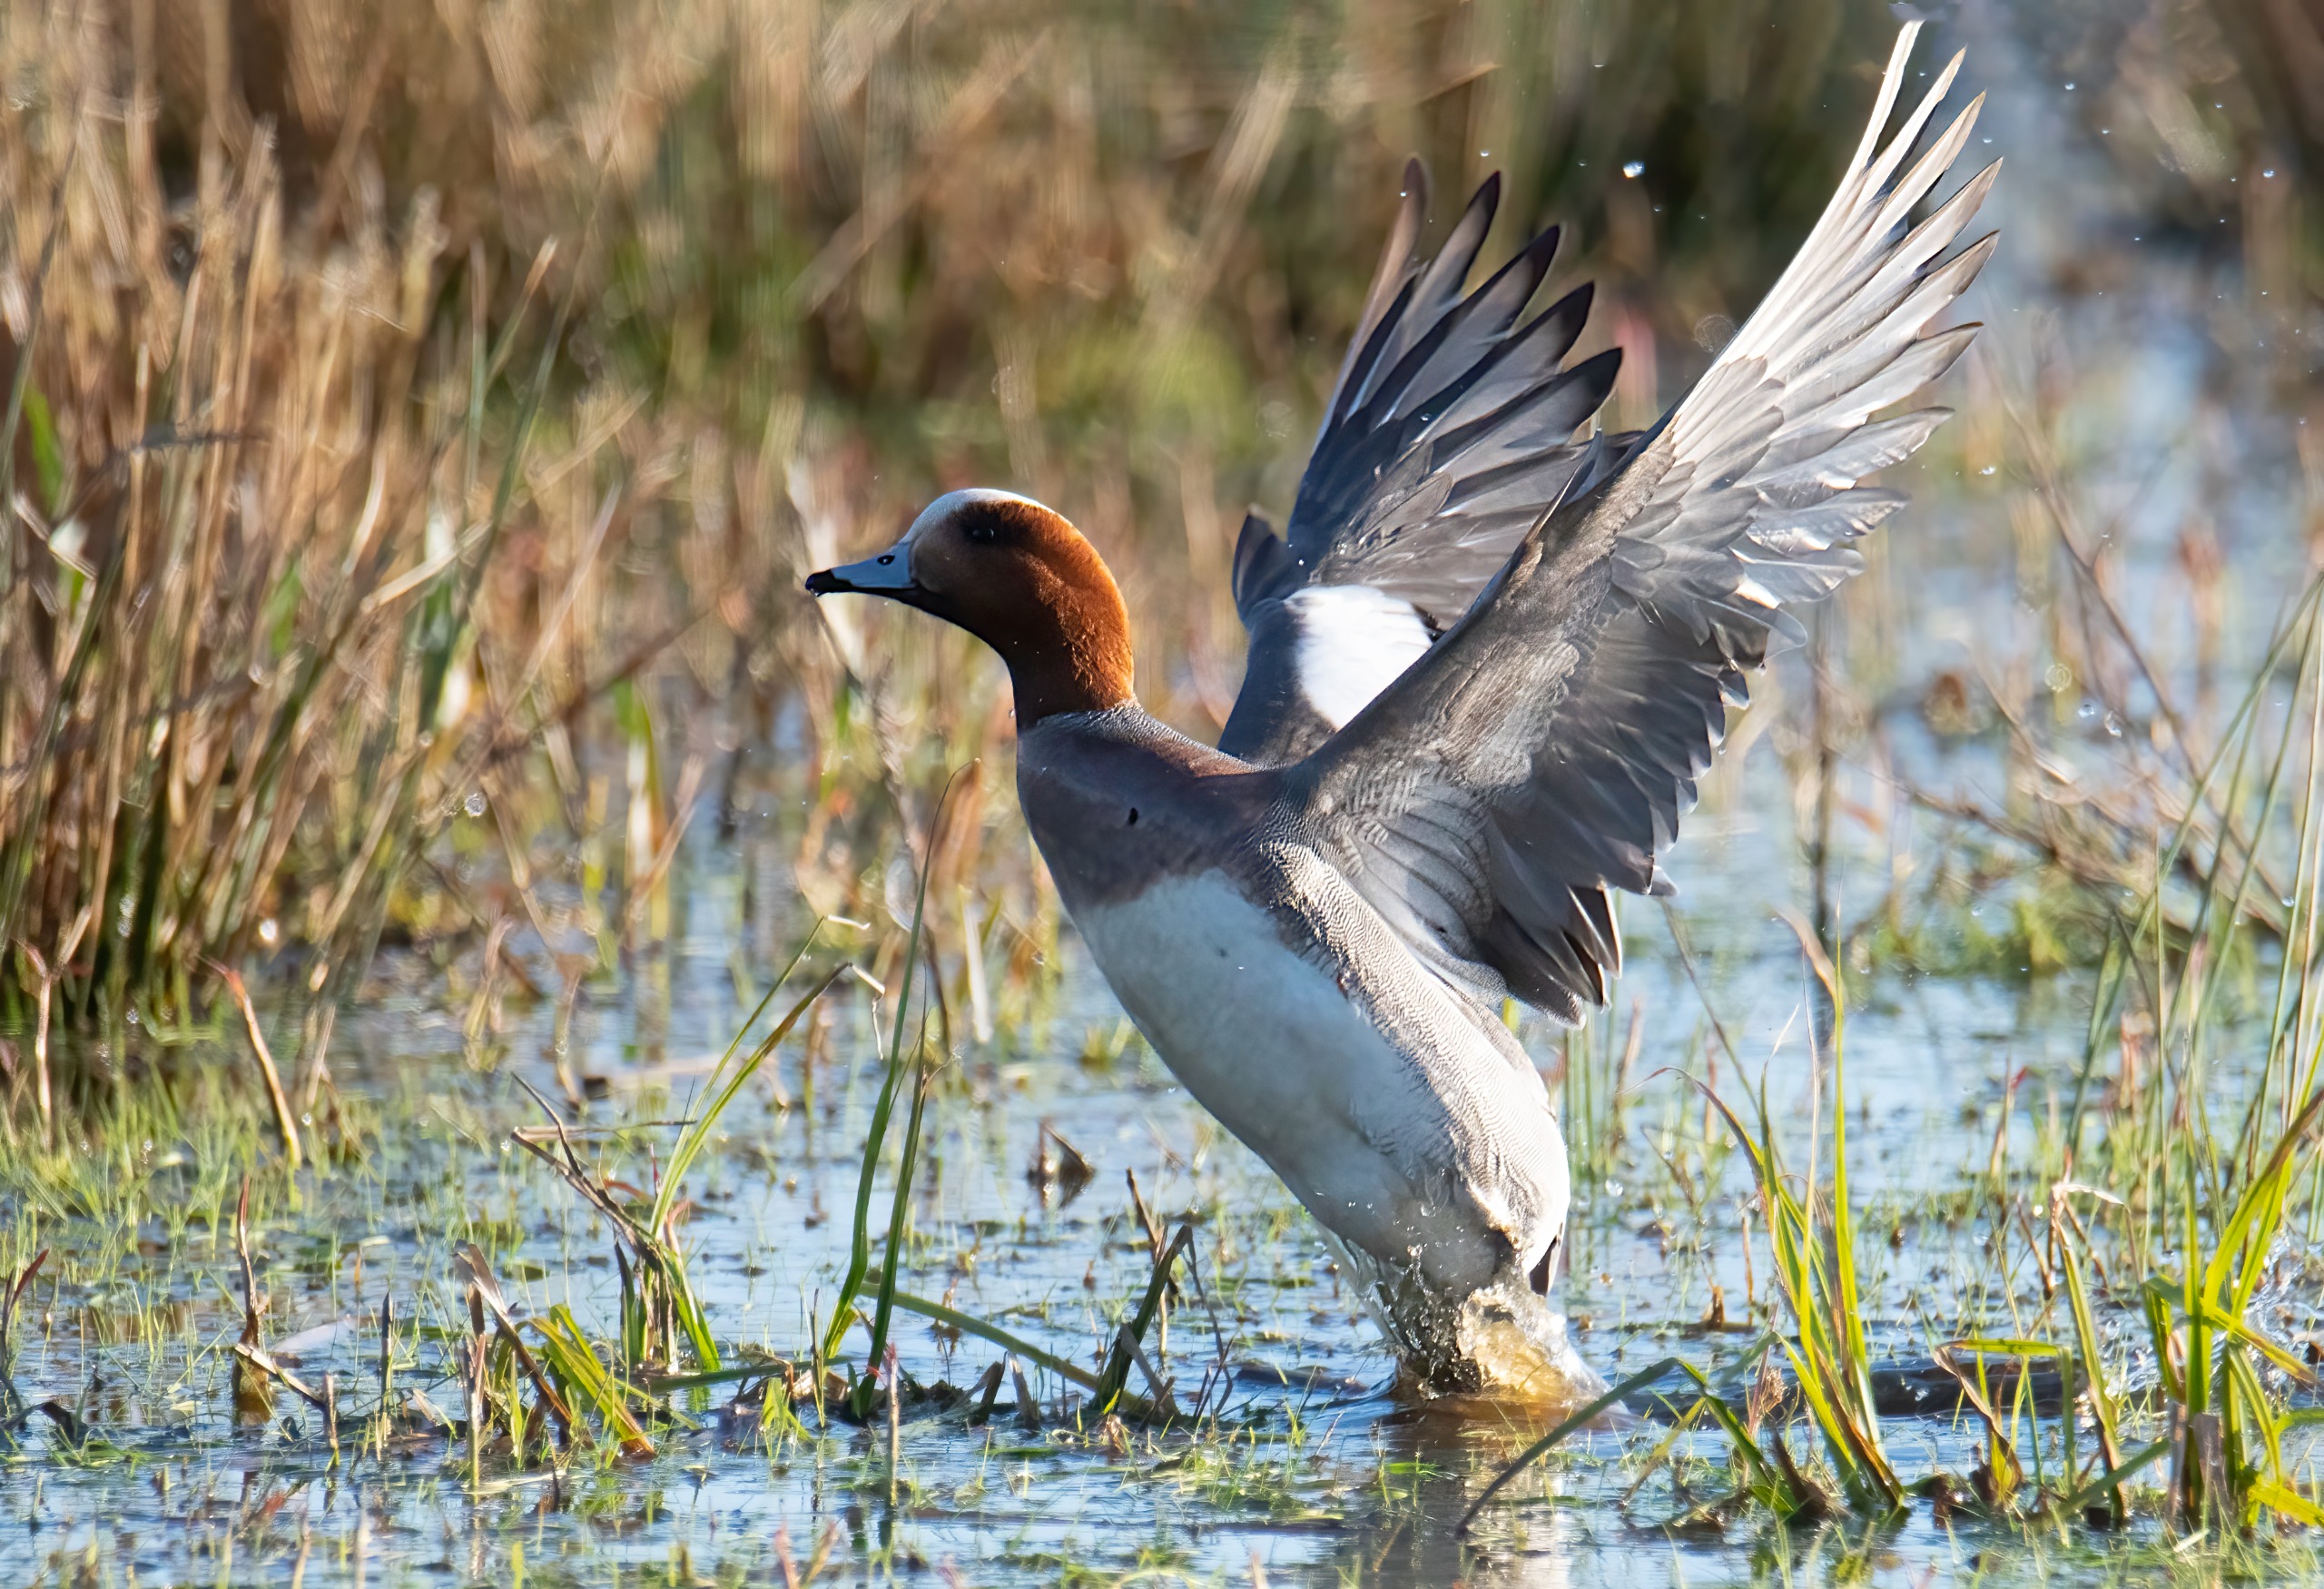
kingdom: Animalia
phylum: Chordata
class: Aves
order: Anseriformes
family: Anatidae
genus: Mareca
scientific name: Mareca penelope
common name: Pibeand
